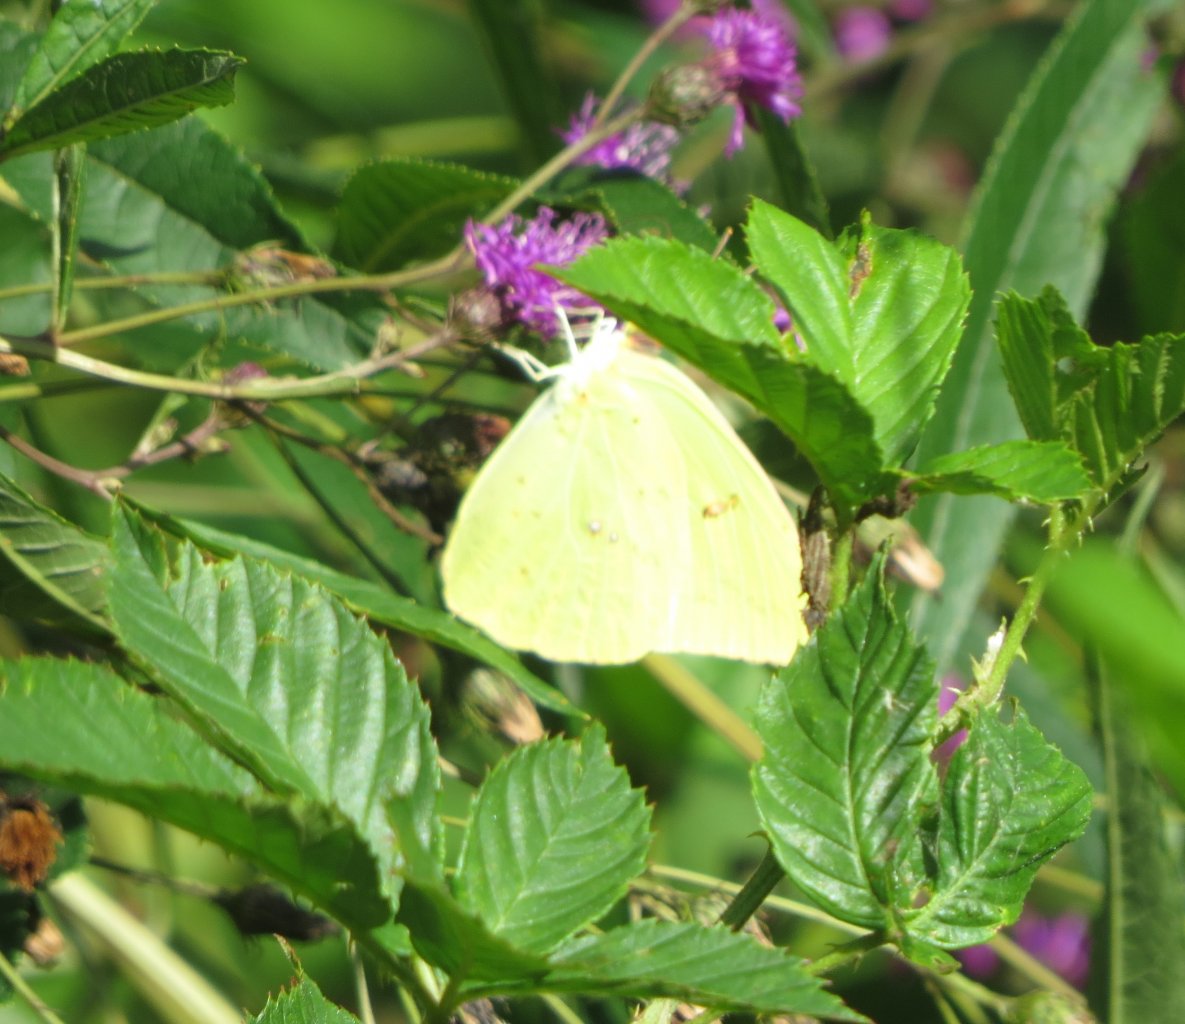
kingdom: Animalia
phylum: Arthropoda
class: Insecta
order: Lepidoptera
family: Pieridae
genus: Phoebis
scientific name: Phoebis sennae
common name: Cloudless Sulphur
